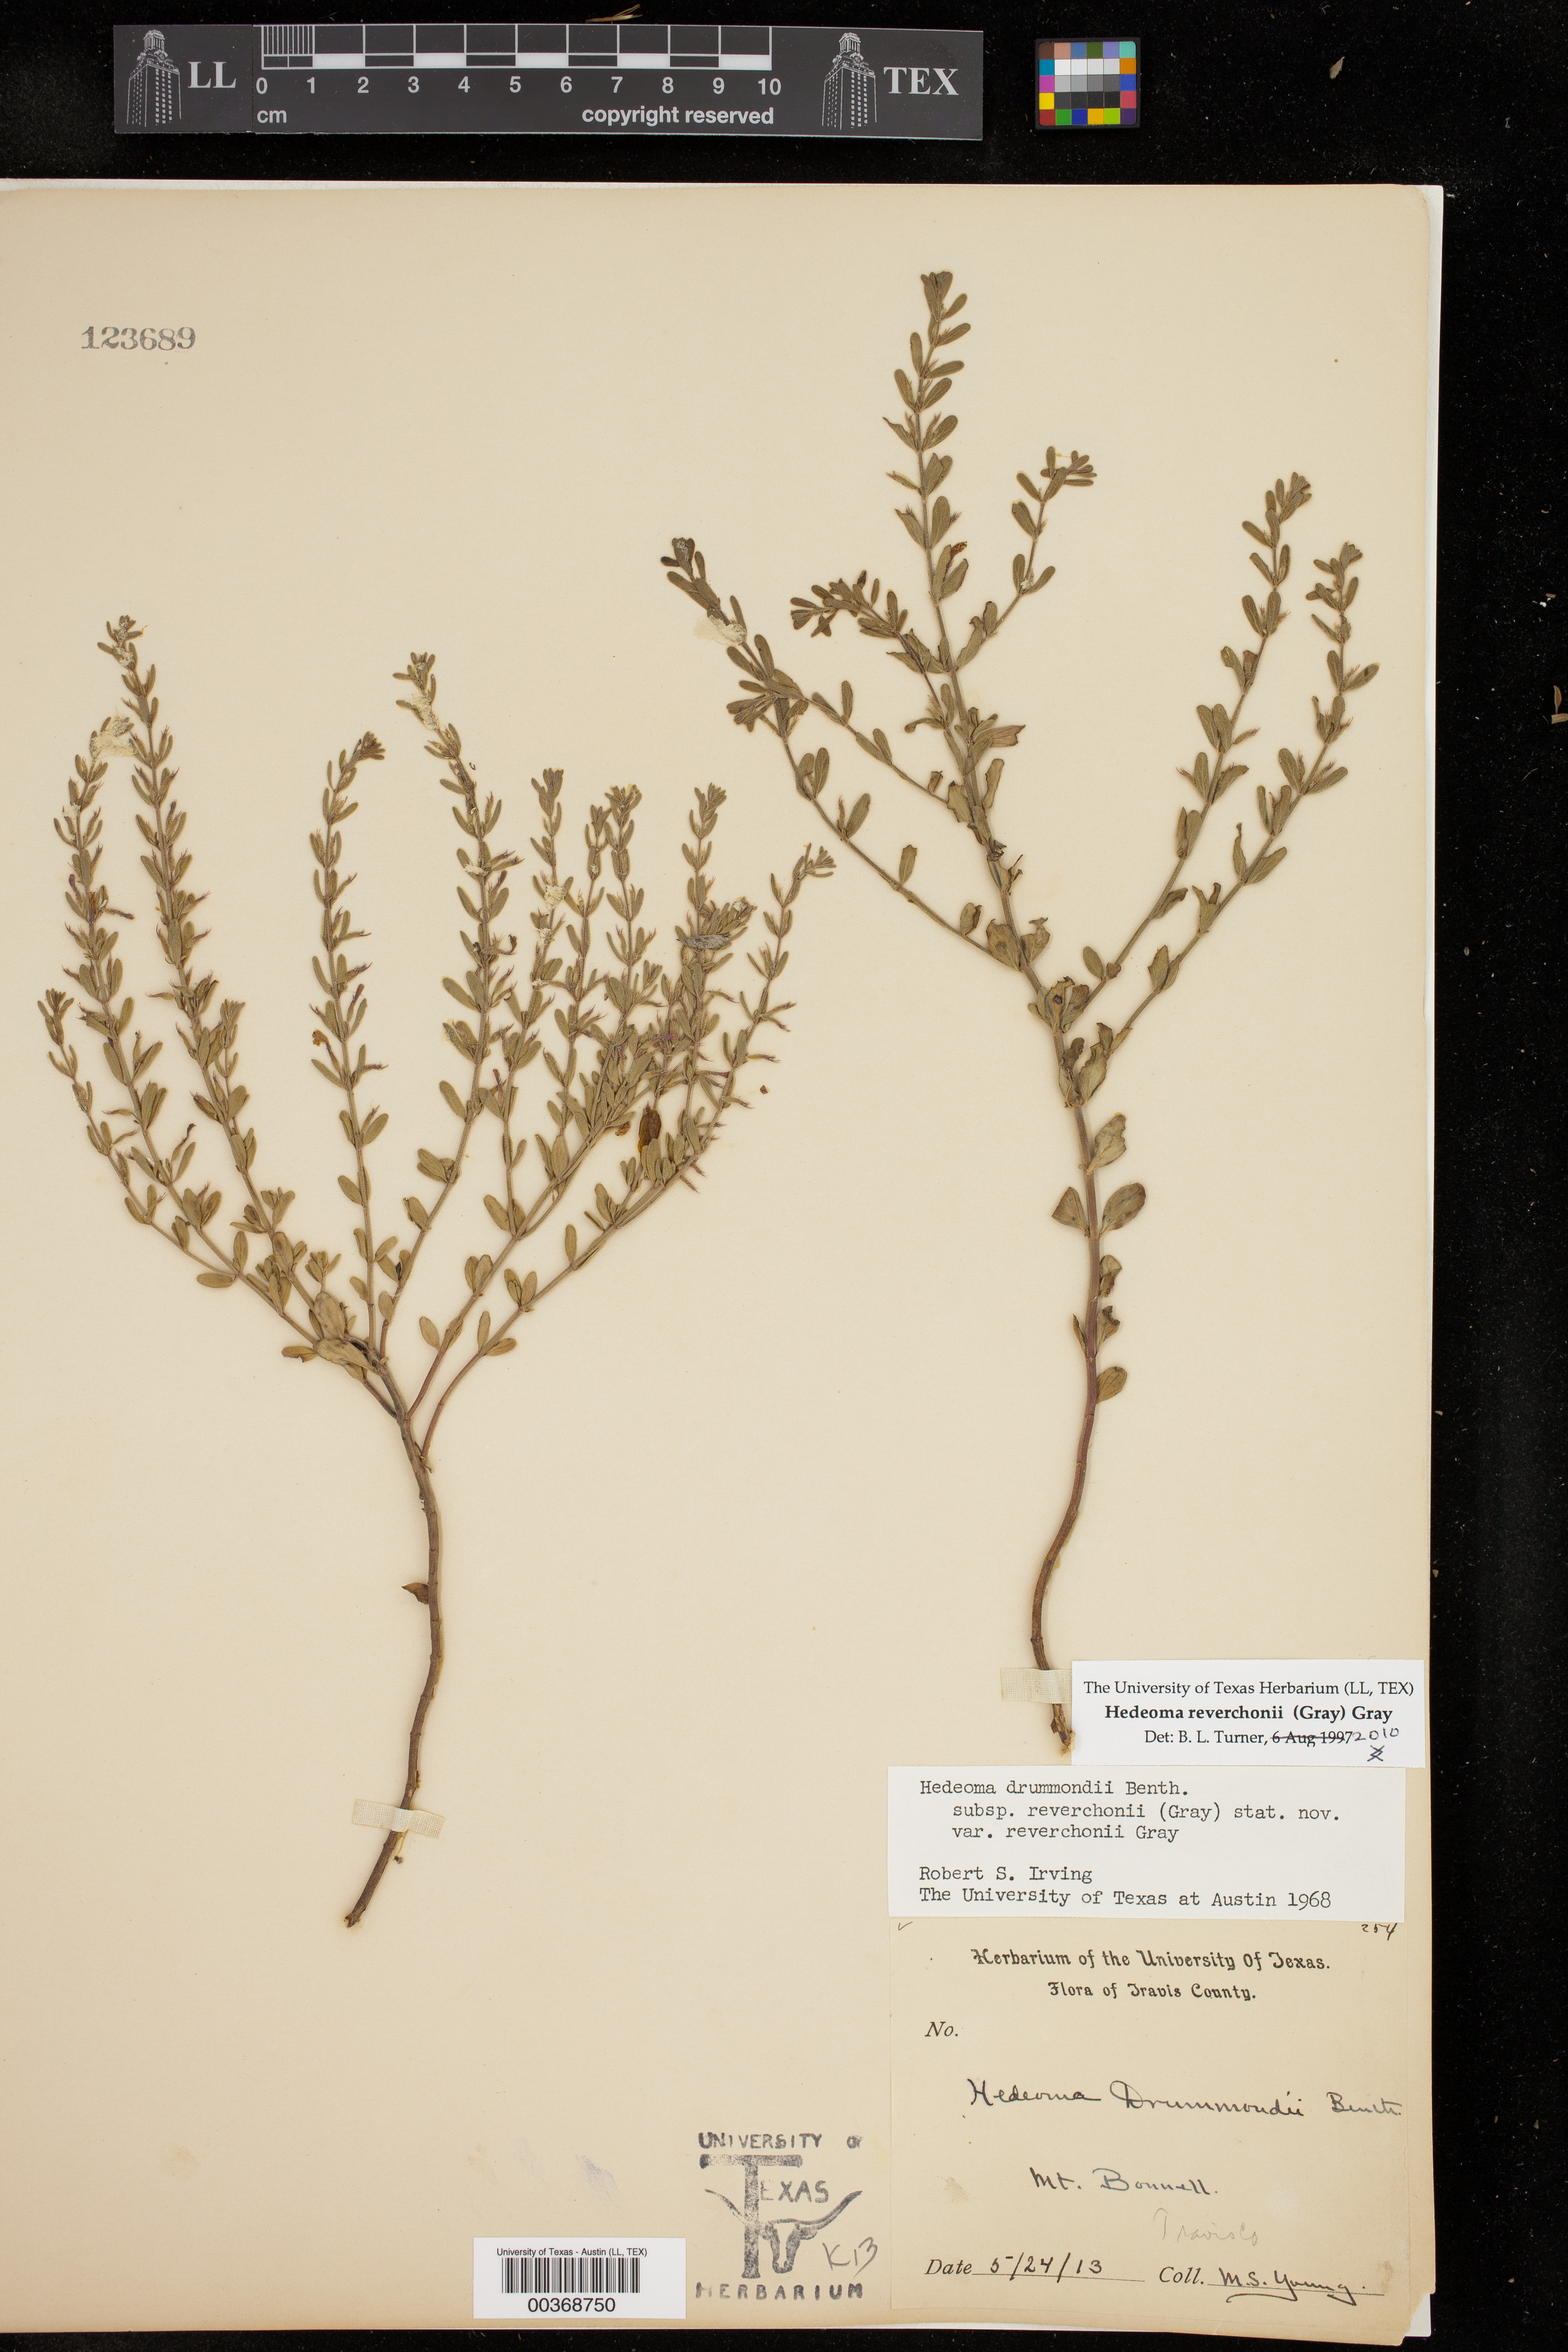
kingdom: Plantae
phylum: Tracheophyta
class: Magnoliopsida
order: Lamiales
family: Lamiaceae
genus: Hedeoma
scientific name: Hedeoma reverchonii
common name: Reverchon's false penny-royal
